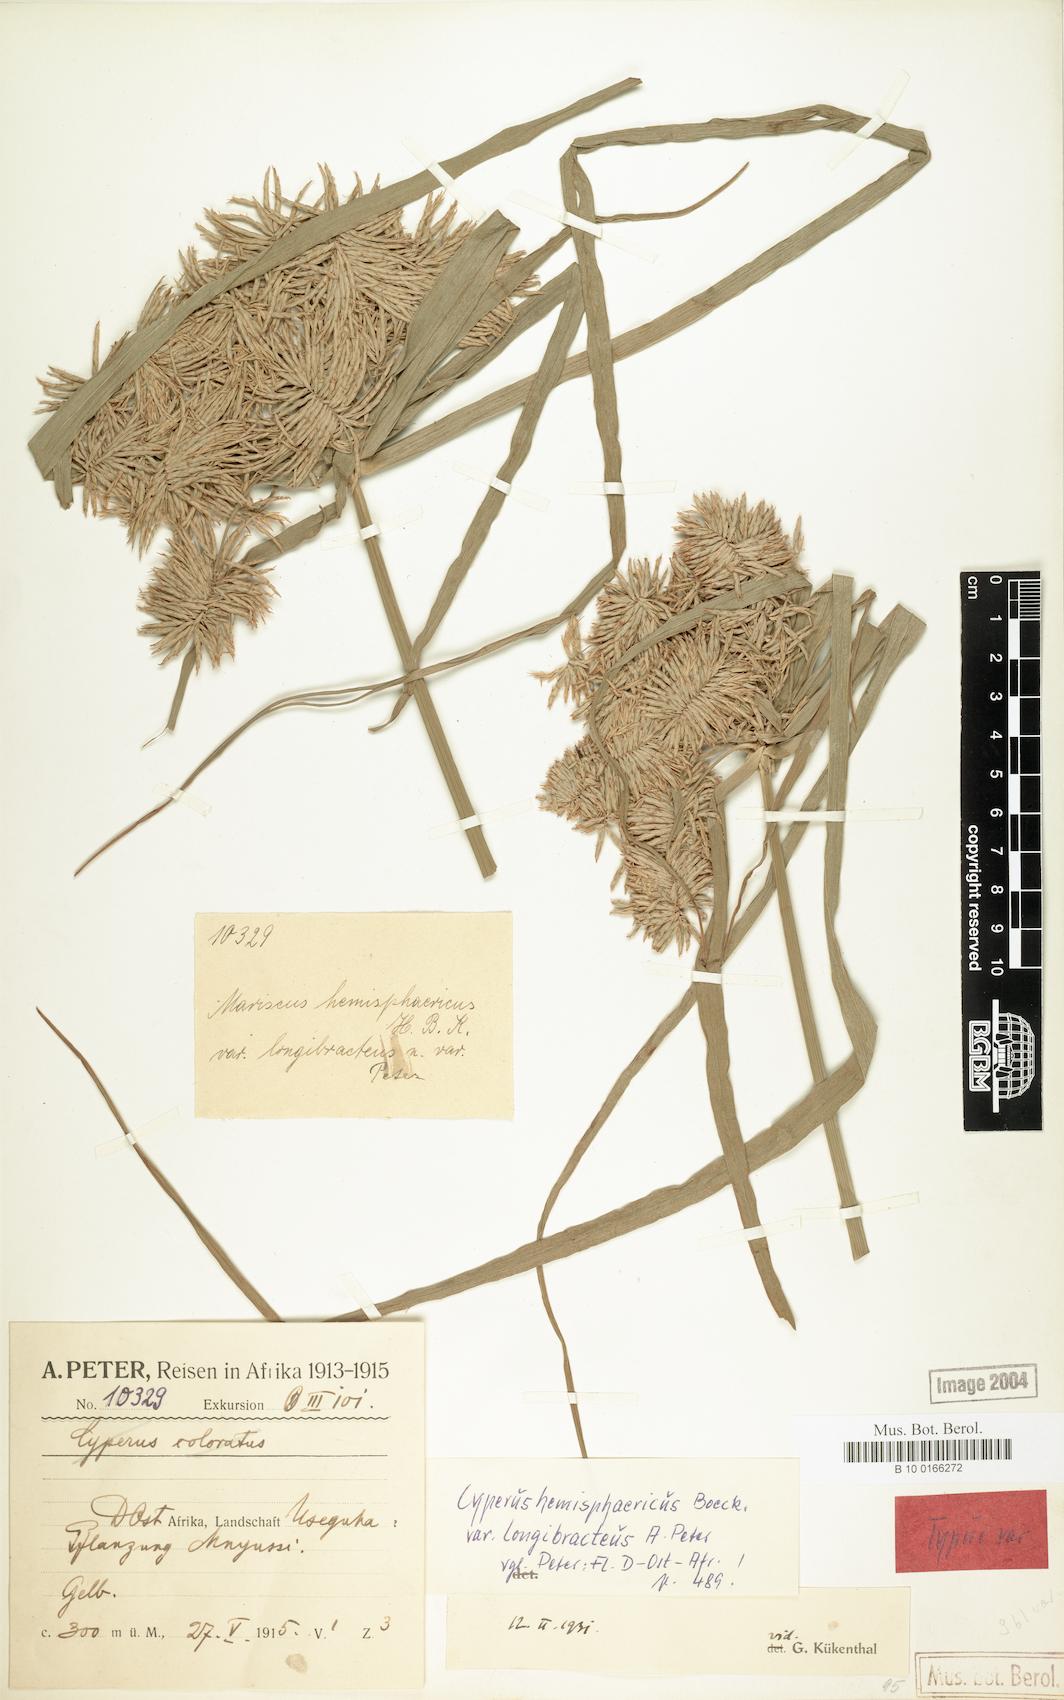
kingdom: Plantae
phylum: Tracheophyta
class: Liliopsida
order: Poales
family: Cyperaceae
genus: Cyperus
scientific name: Cyperus hemisphaericus
